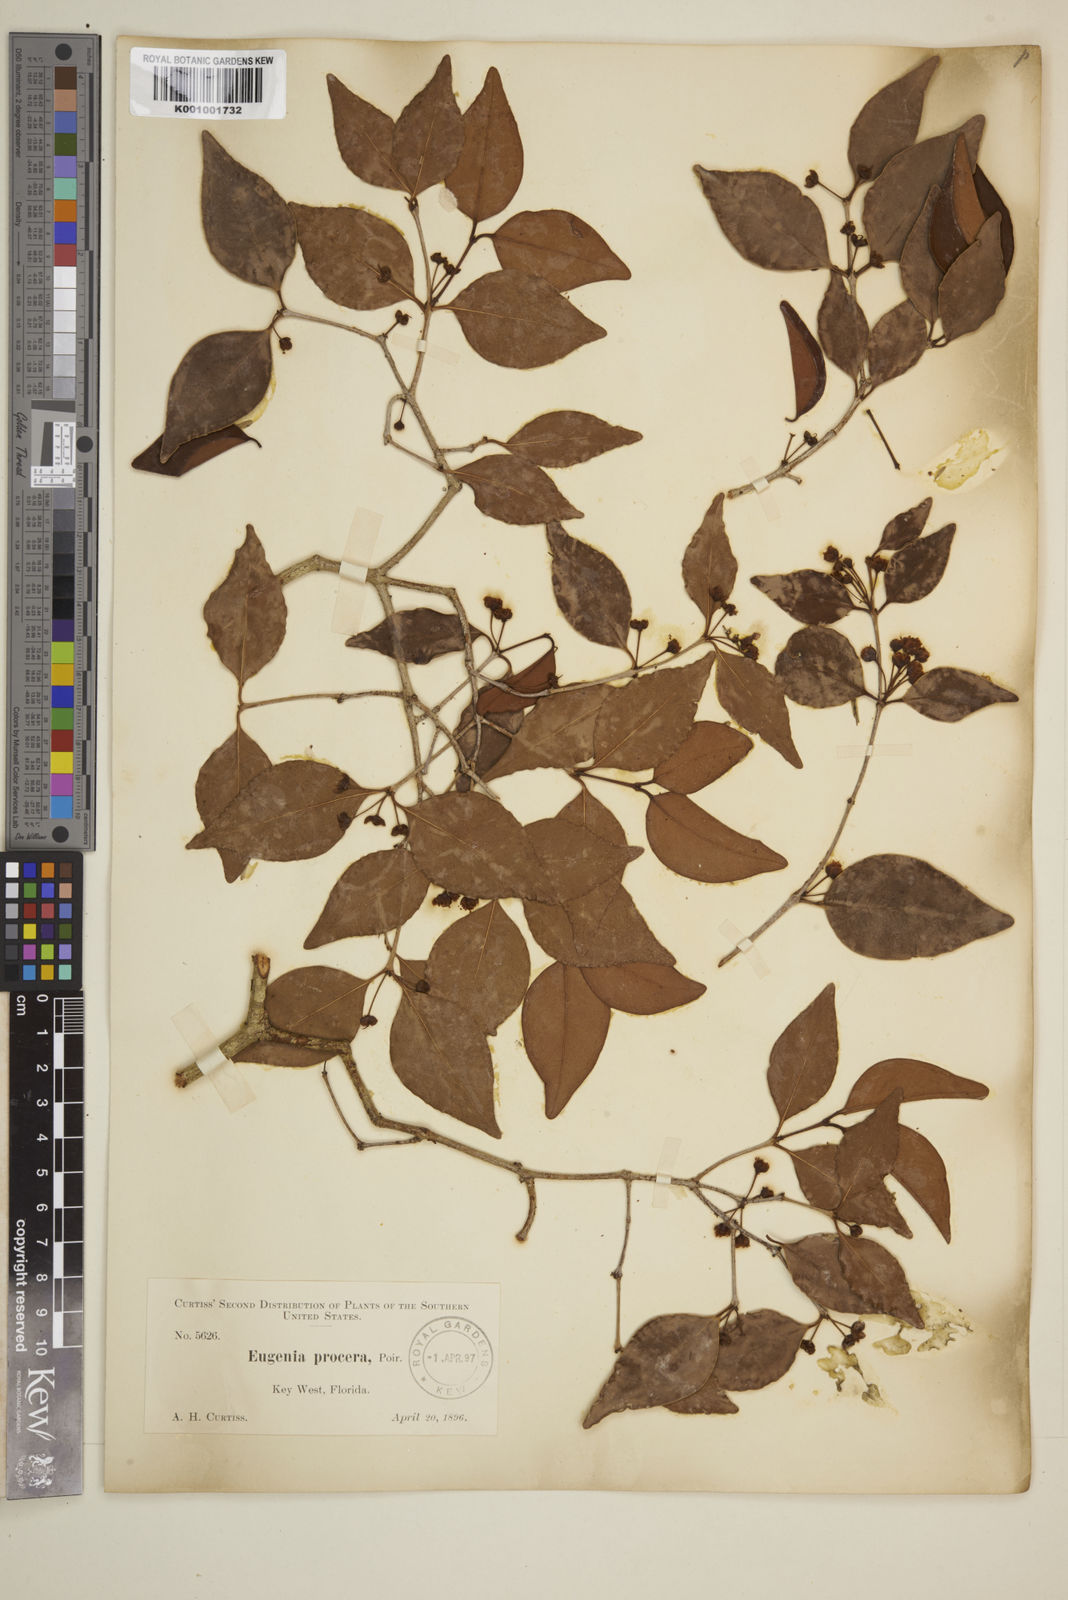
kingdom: Plantae
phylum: Tracheophyta
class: Magnoliopsida
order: Myrtales
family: Myrtaceae
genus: Eugenia
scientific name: Eugenia procera
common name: Bastard blackberry
